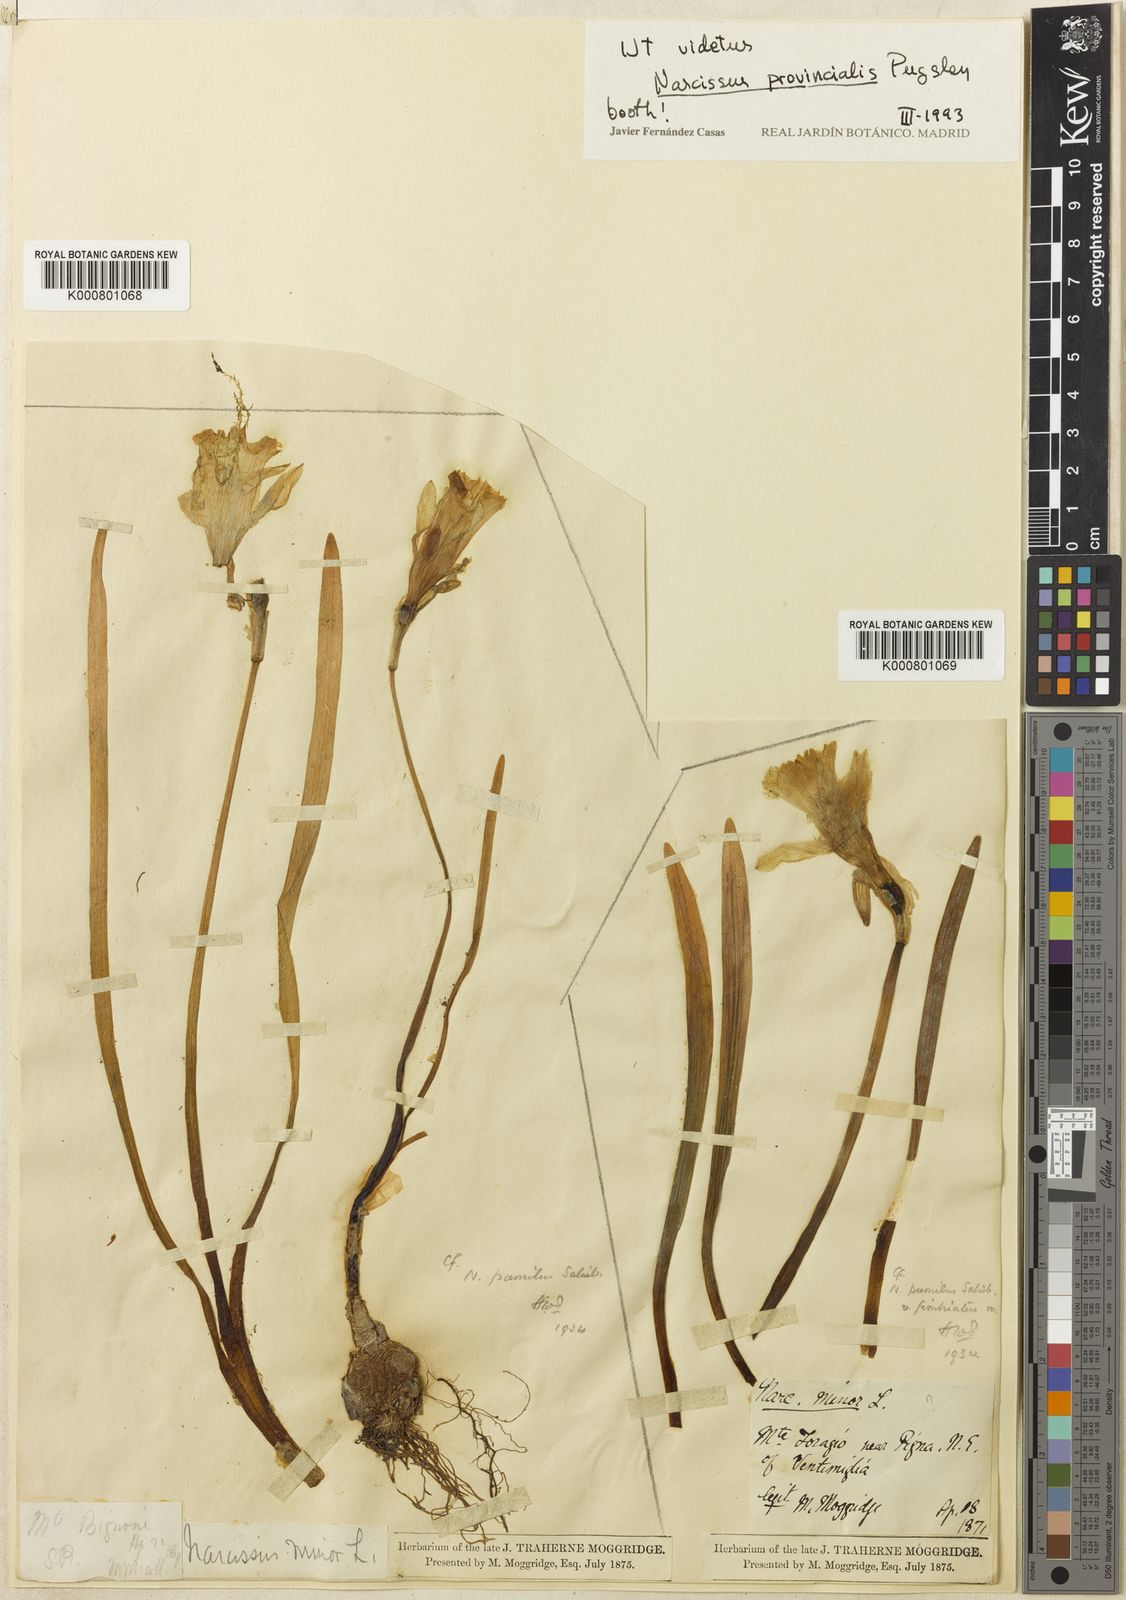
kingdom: Plantae
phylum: Tracheophyta
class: Liliopsida
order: Asparagales
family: Amaryllidaceae
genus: Narcissus
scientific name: Narcissus
